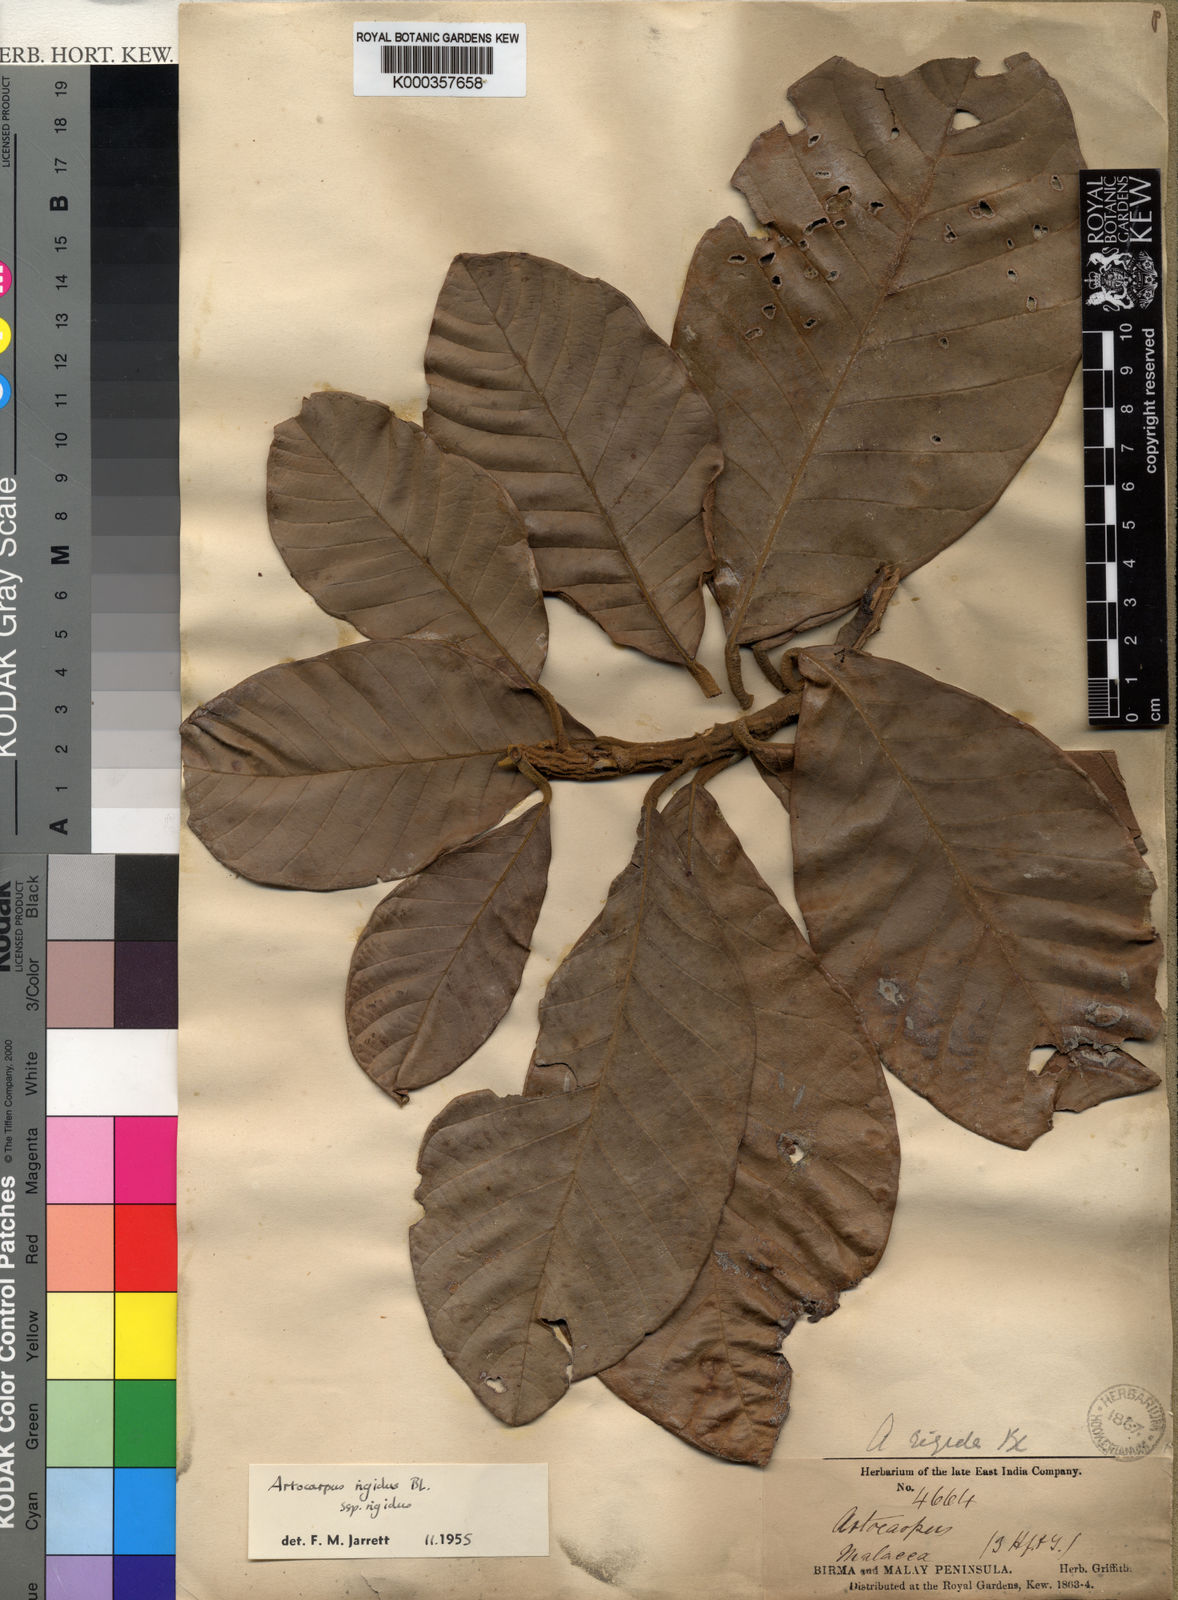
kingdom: Plantae
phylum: Tracheophyta
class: Magnoliopsida
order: Rosales
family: Moraceae
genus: Artocarpus
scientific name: Artocarpus rigidus
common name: Monkey-jack
